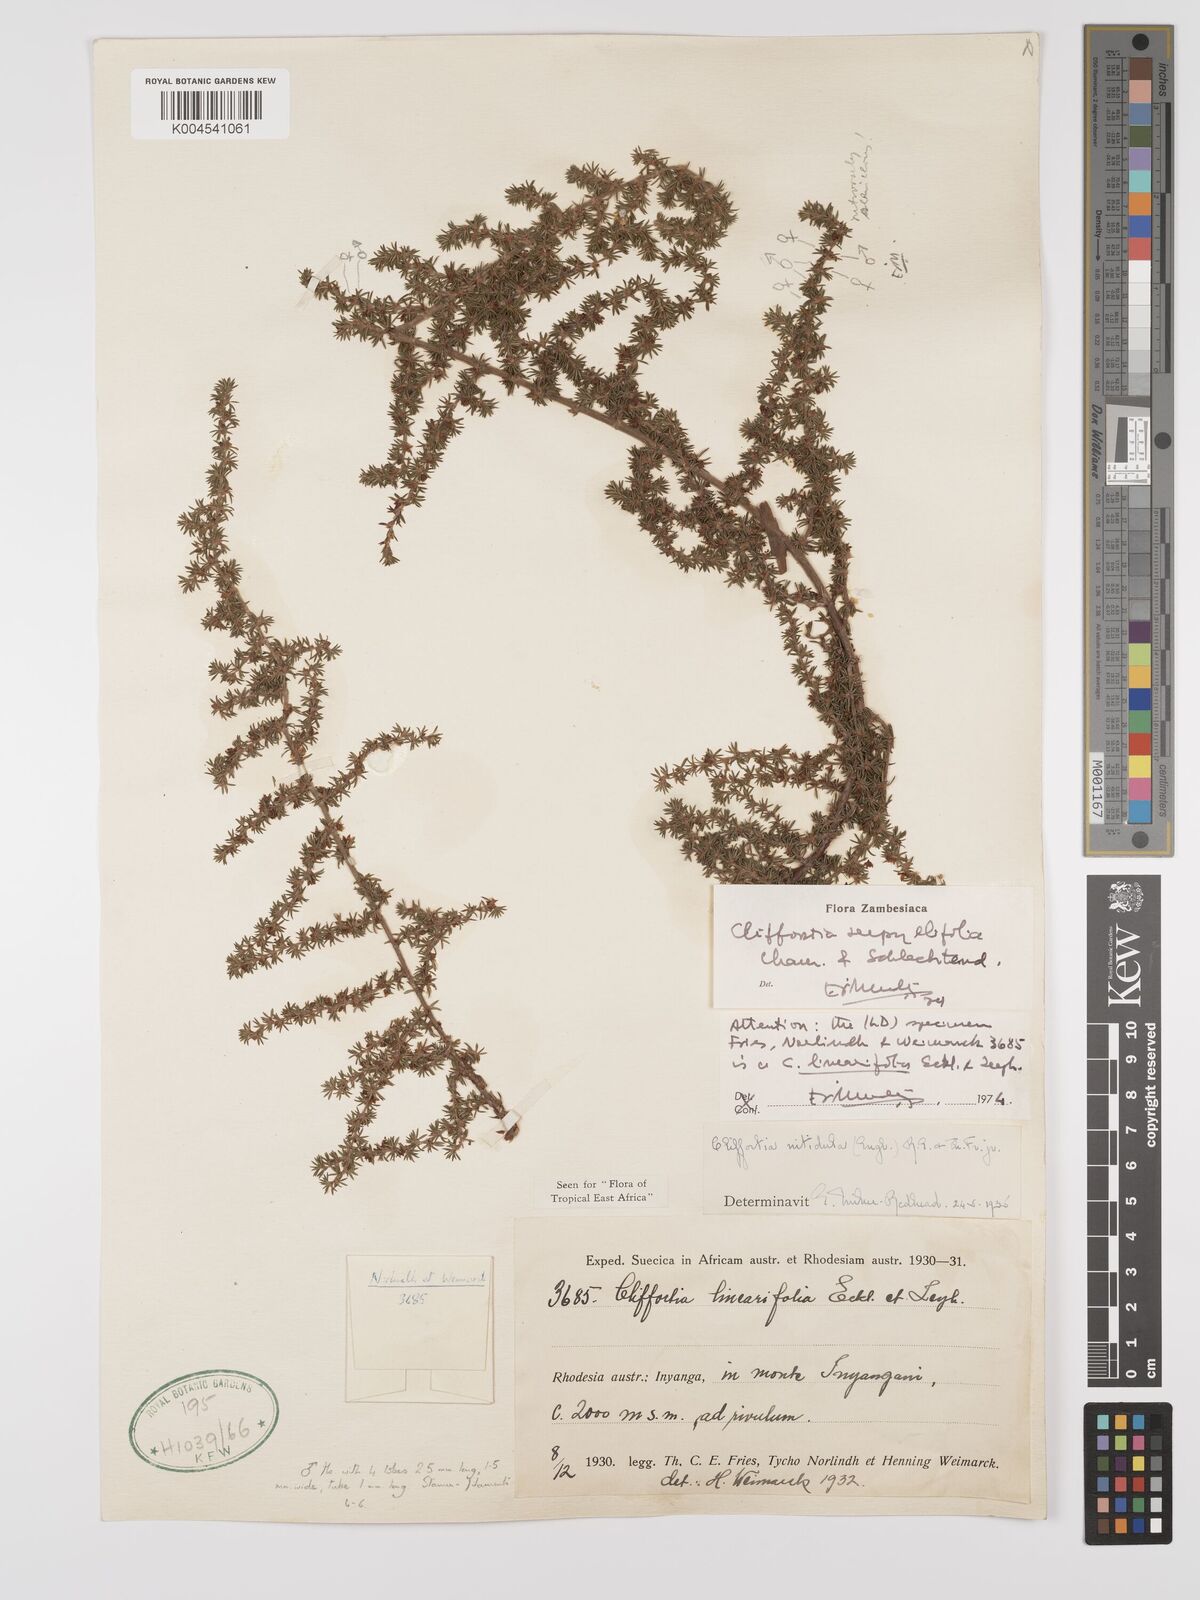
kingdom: Plantae
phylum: Tracheophyta
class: Magnoliopsida
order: Rosales
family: Rosaceae
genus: Cliffortia
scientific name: Cliffortia linearifolia
